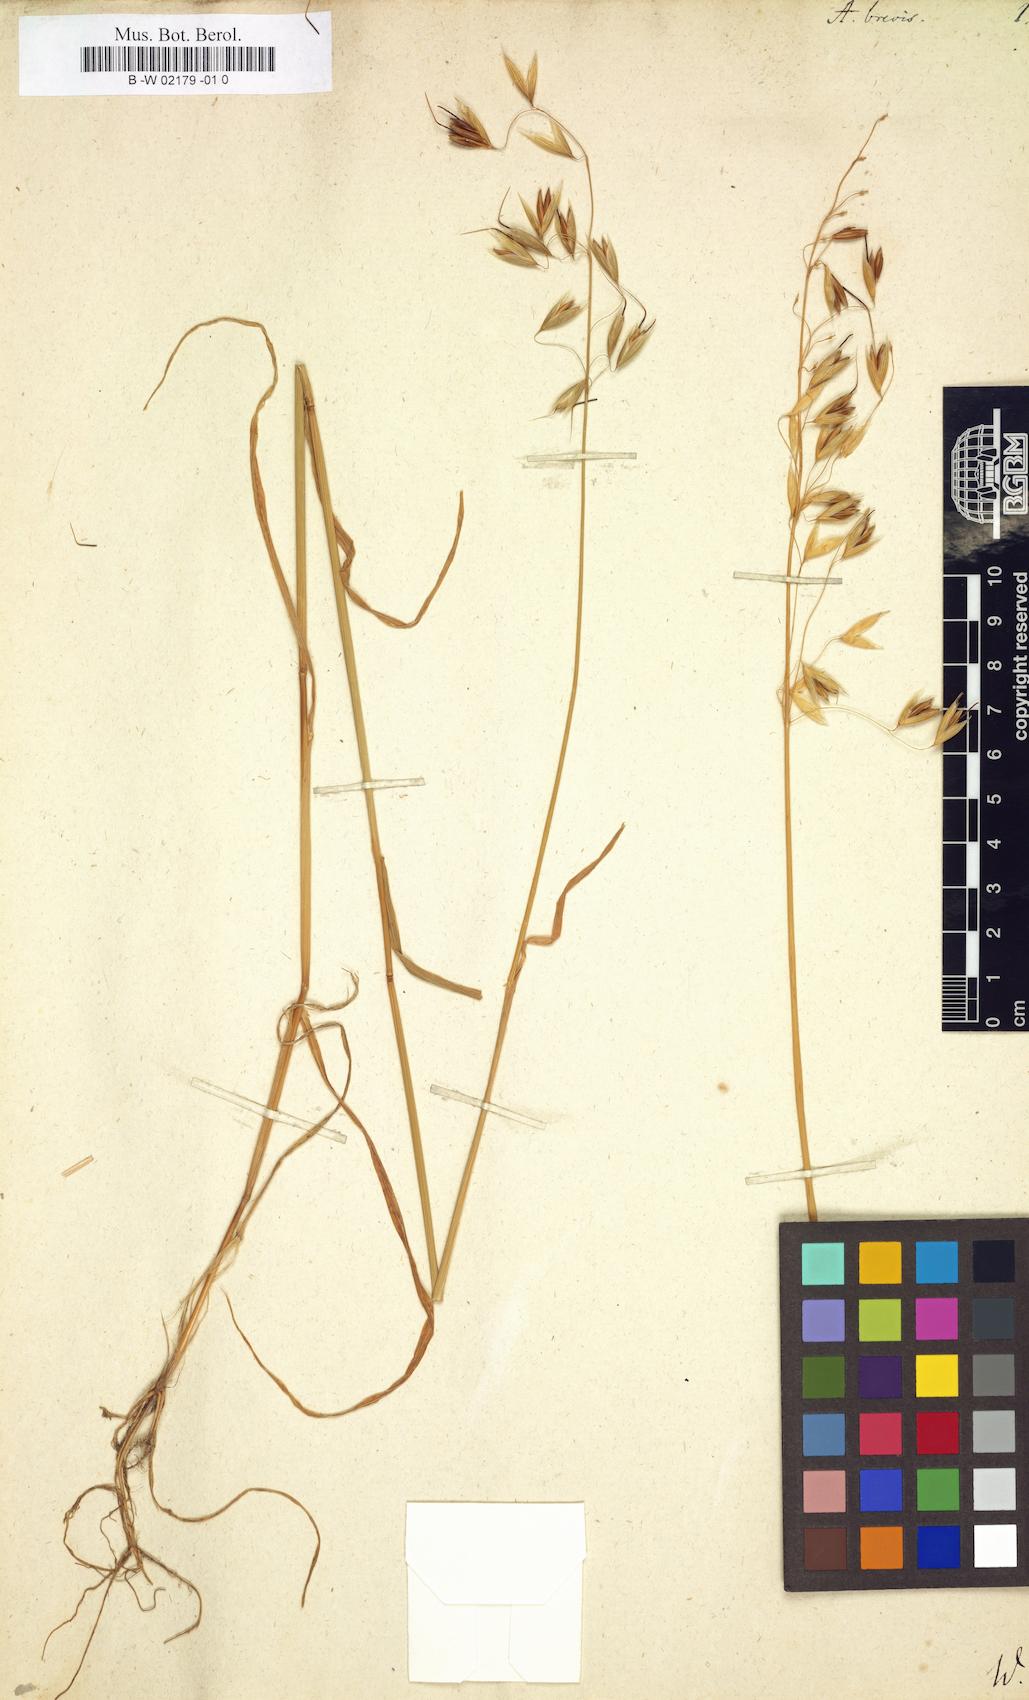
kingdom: Plantae
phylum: Tracheophyta
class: Liliopsida
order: Poales
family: Poaceae
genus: Avena
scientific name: Avena brevis
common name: Short oat
